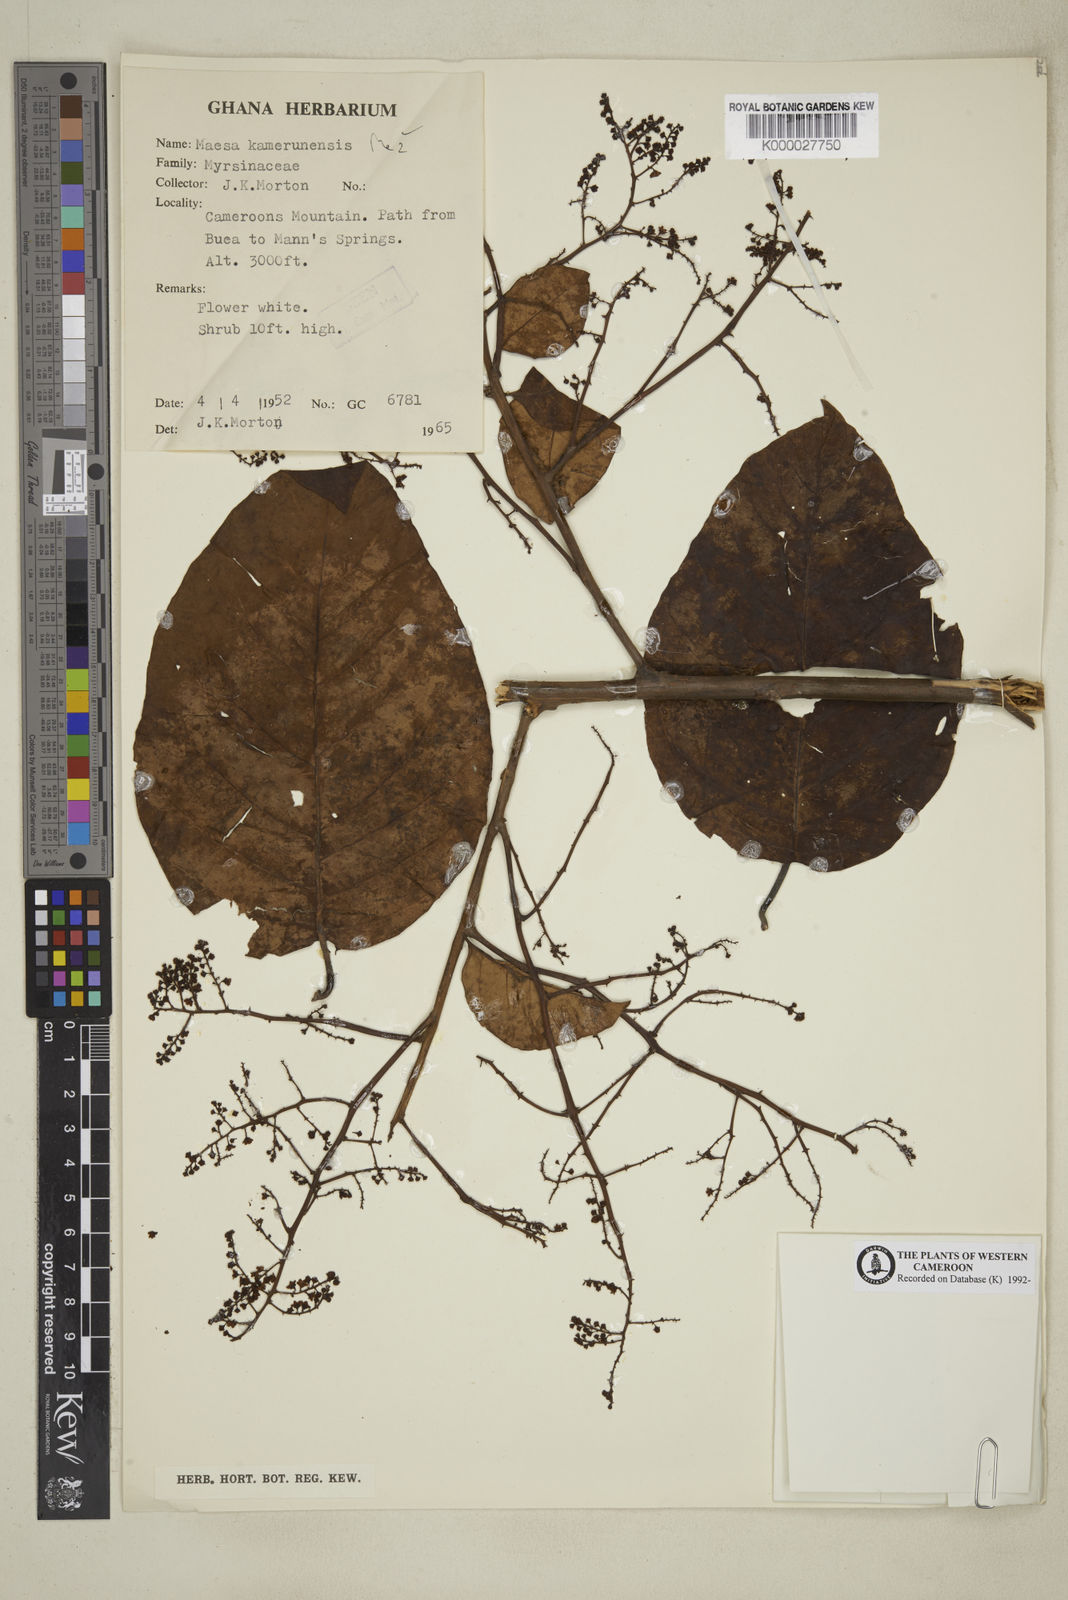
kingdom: Plantae
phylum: Tracheophyta
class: Magnoliopsida
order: Ericales
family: Primulaceae
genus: Maesa
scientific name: Maesa kamerunensis
